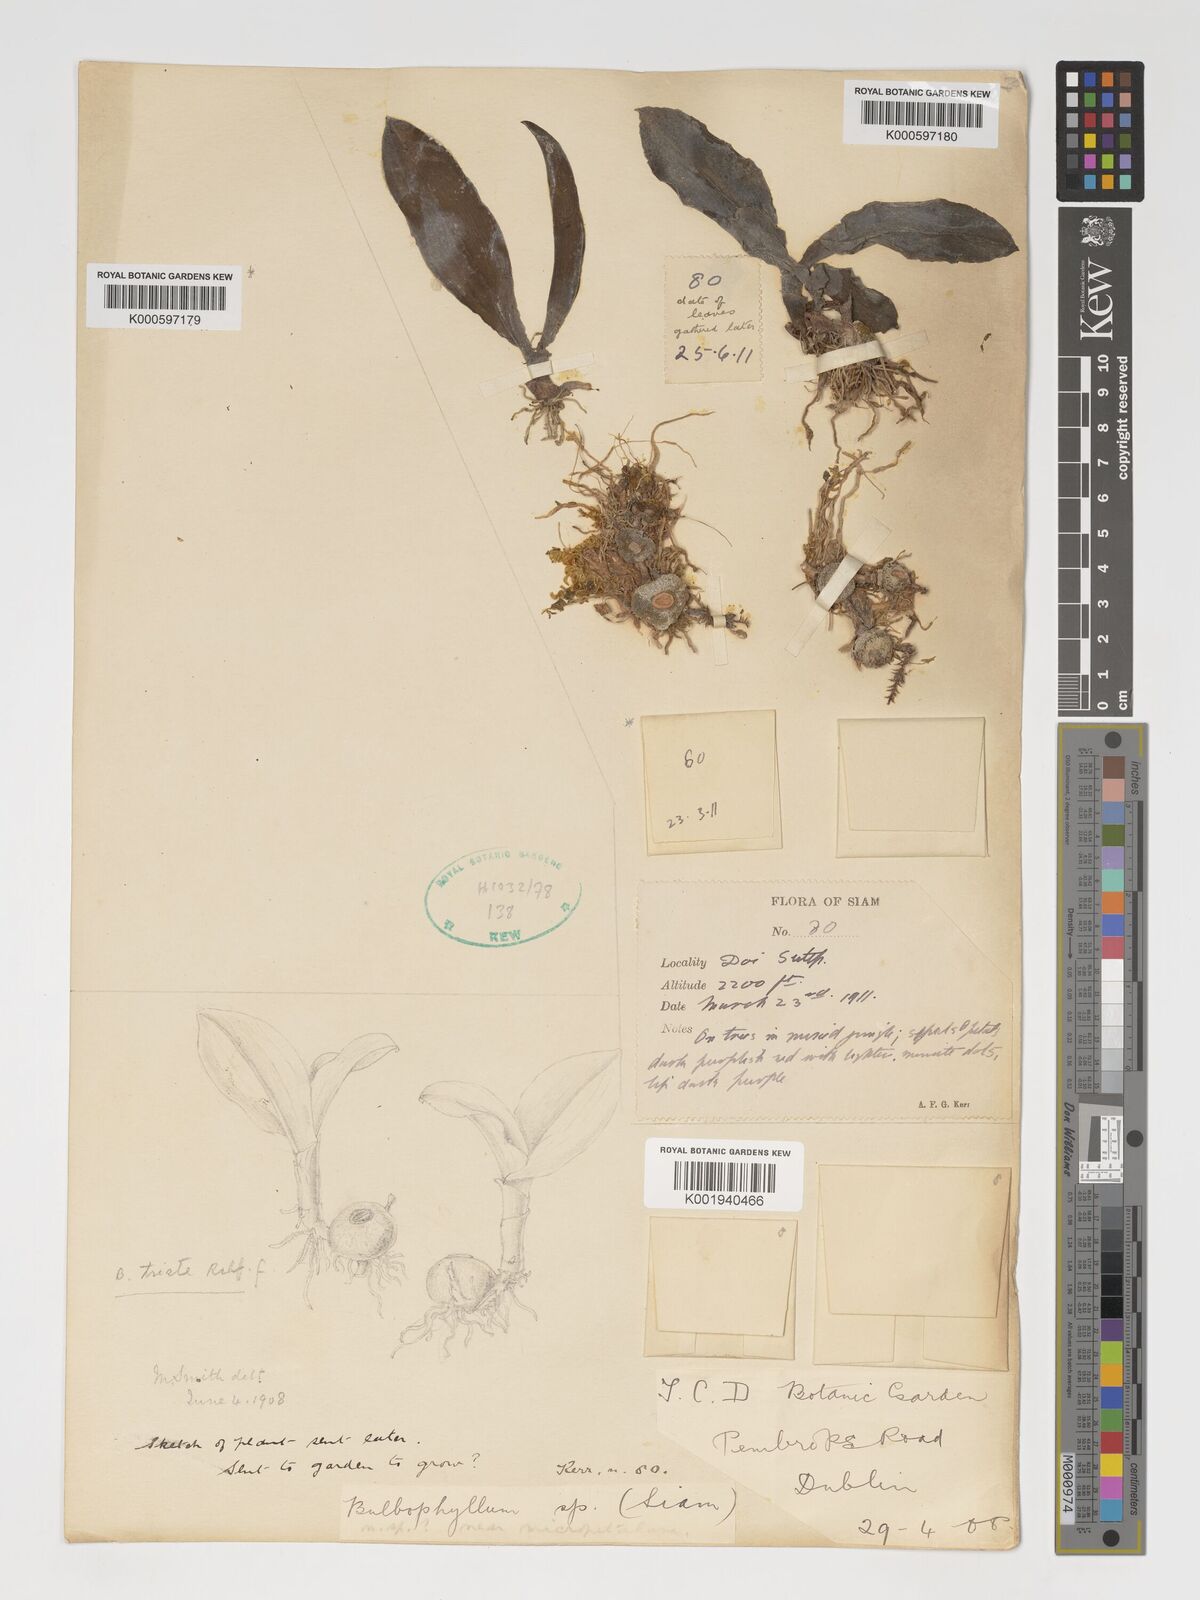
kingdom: Plantae
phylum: Tracheophyta
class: Liliopsida
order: Asparagales
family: Orchidaceae
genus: Bulbophyllum
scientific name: Bulbophyllum triste
